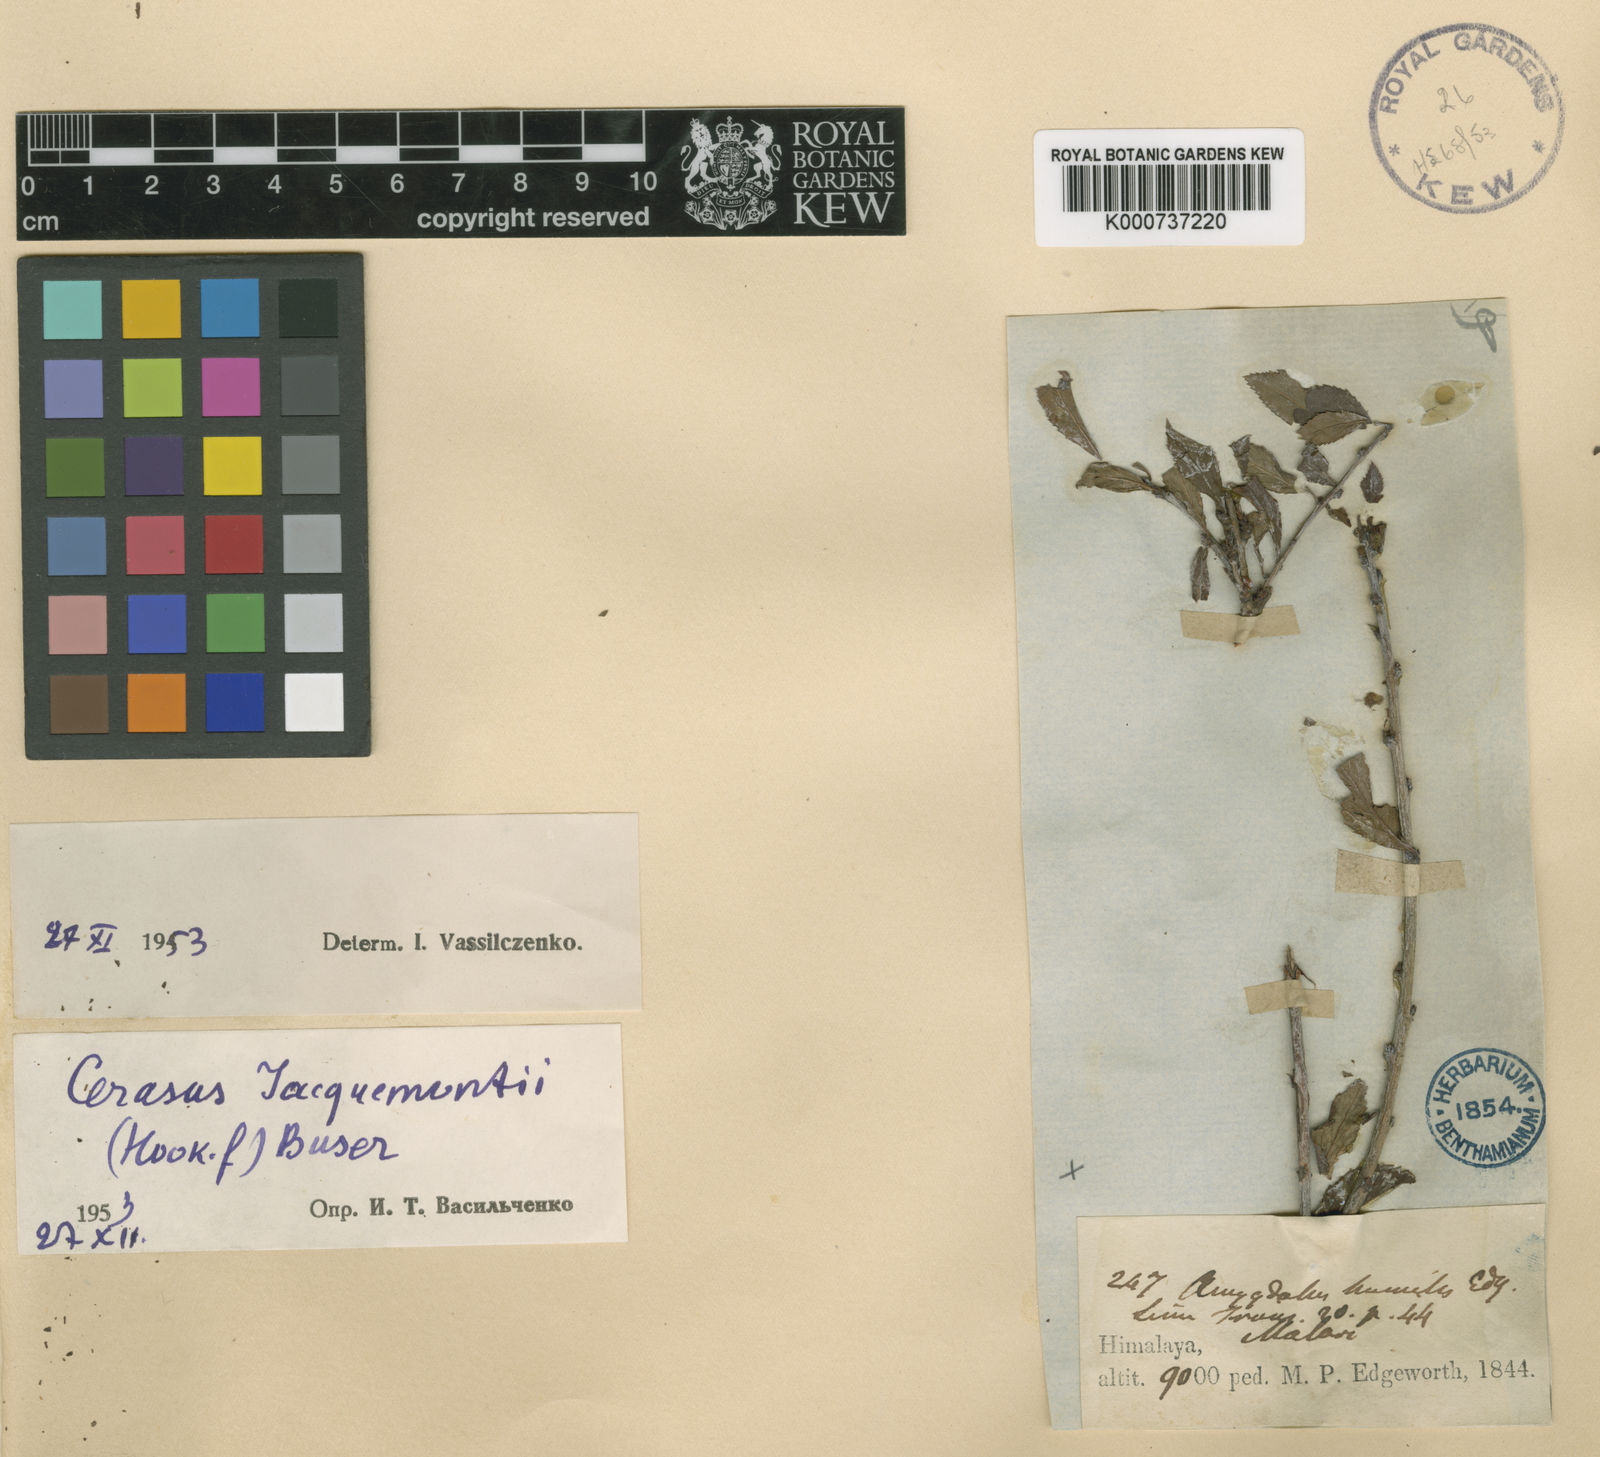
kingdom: Plantae
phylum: Tracheophyta
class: Magnoliopsida
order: Rosales
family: Rosaceae
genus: Prunus
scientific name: Prunus jacquemontii
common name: Flowering almond
